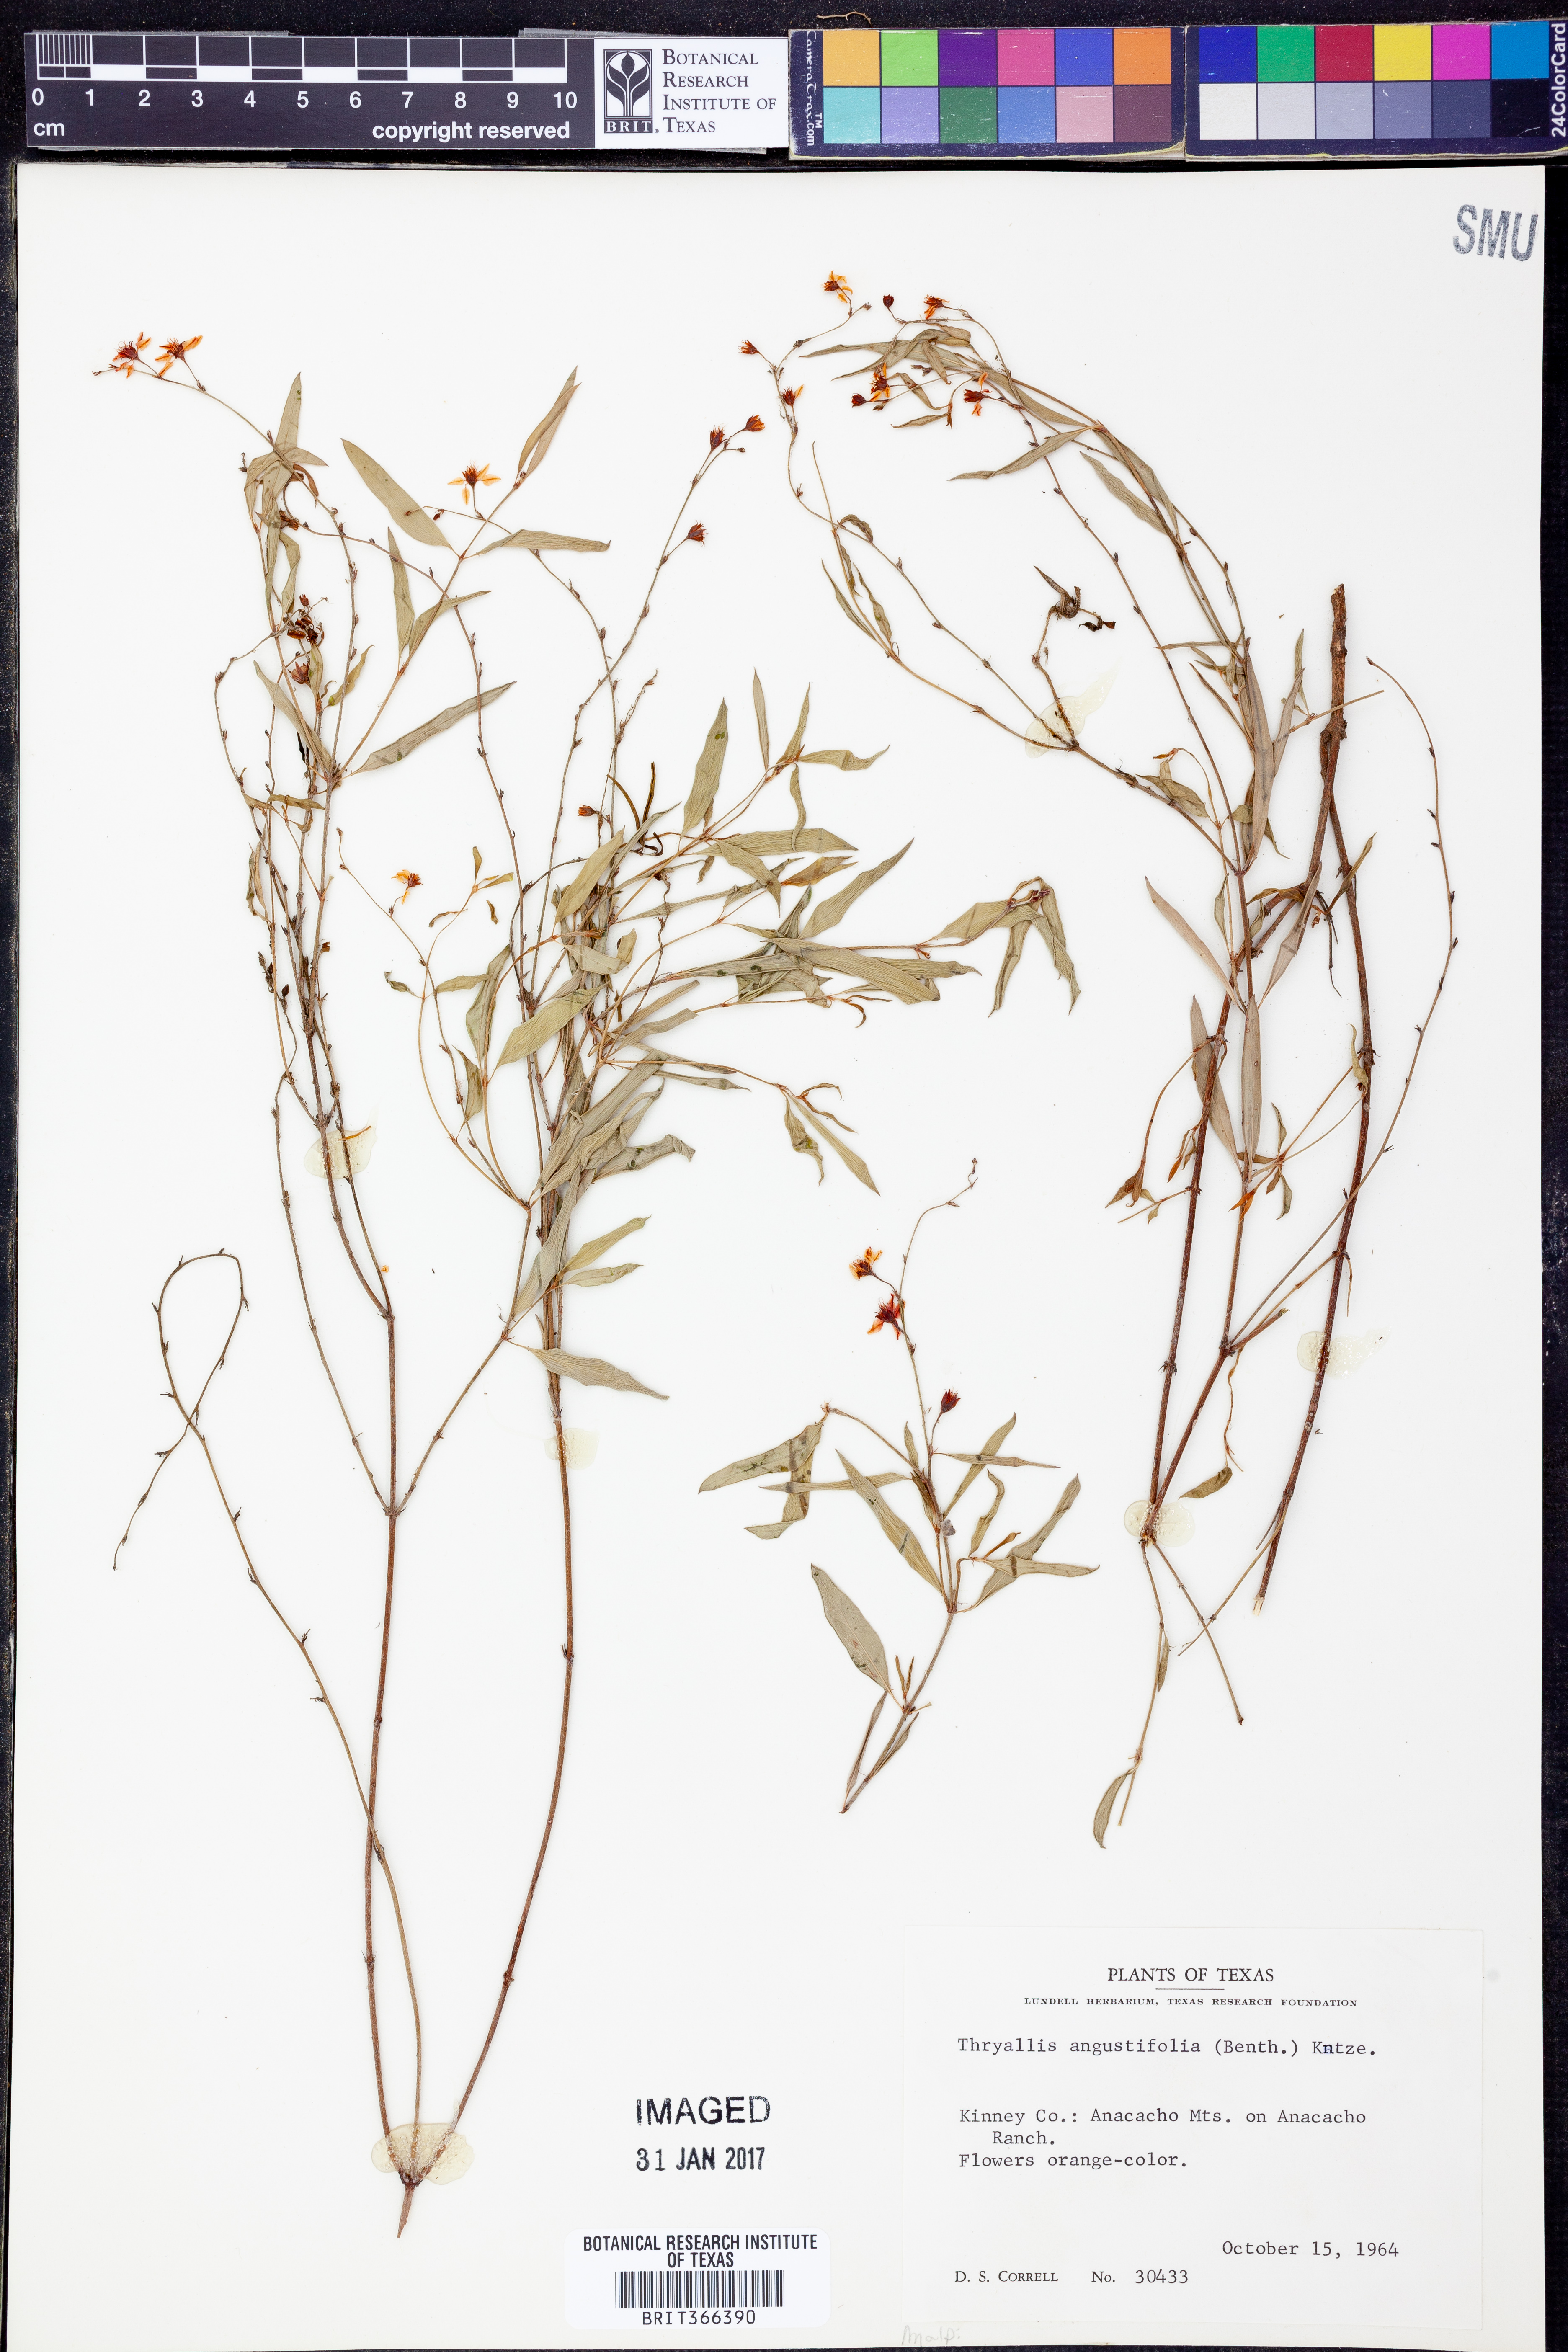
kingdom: Plantae
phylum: Tracheophyta
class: Magnoliopsida
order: Malpighiales
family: Malpighiaceae
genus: Galphimia
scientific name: Galphimia angustifolia
